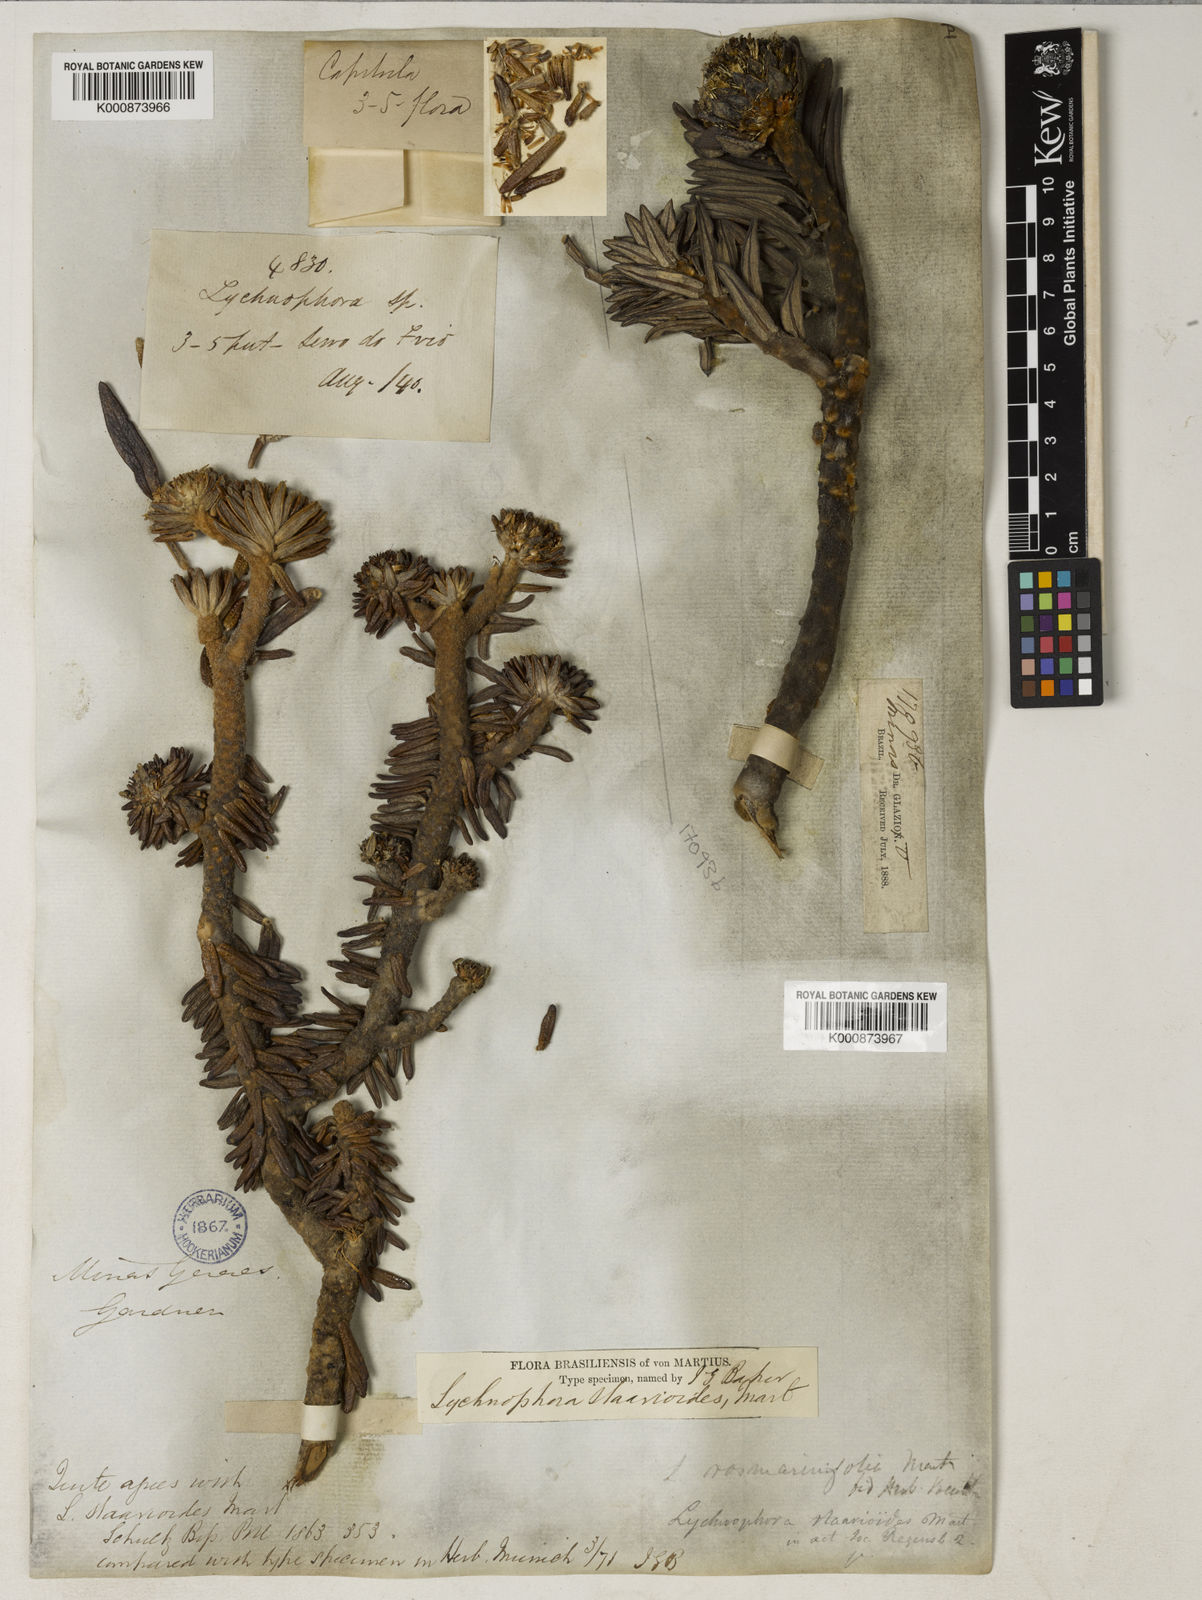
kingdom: Plantae
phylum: Tracheophyta
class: Magnoliopsida
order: Asterales
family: Asteraceae
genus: Lychnophora
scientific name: Lychnophora staavioides
